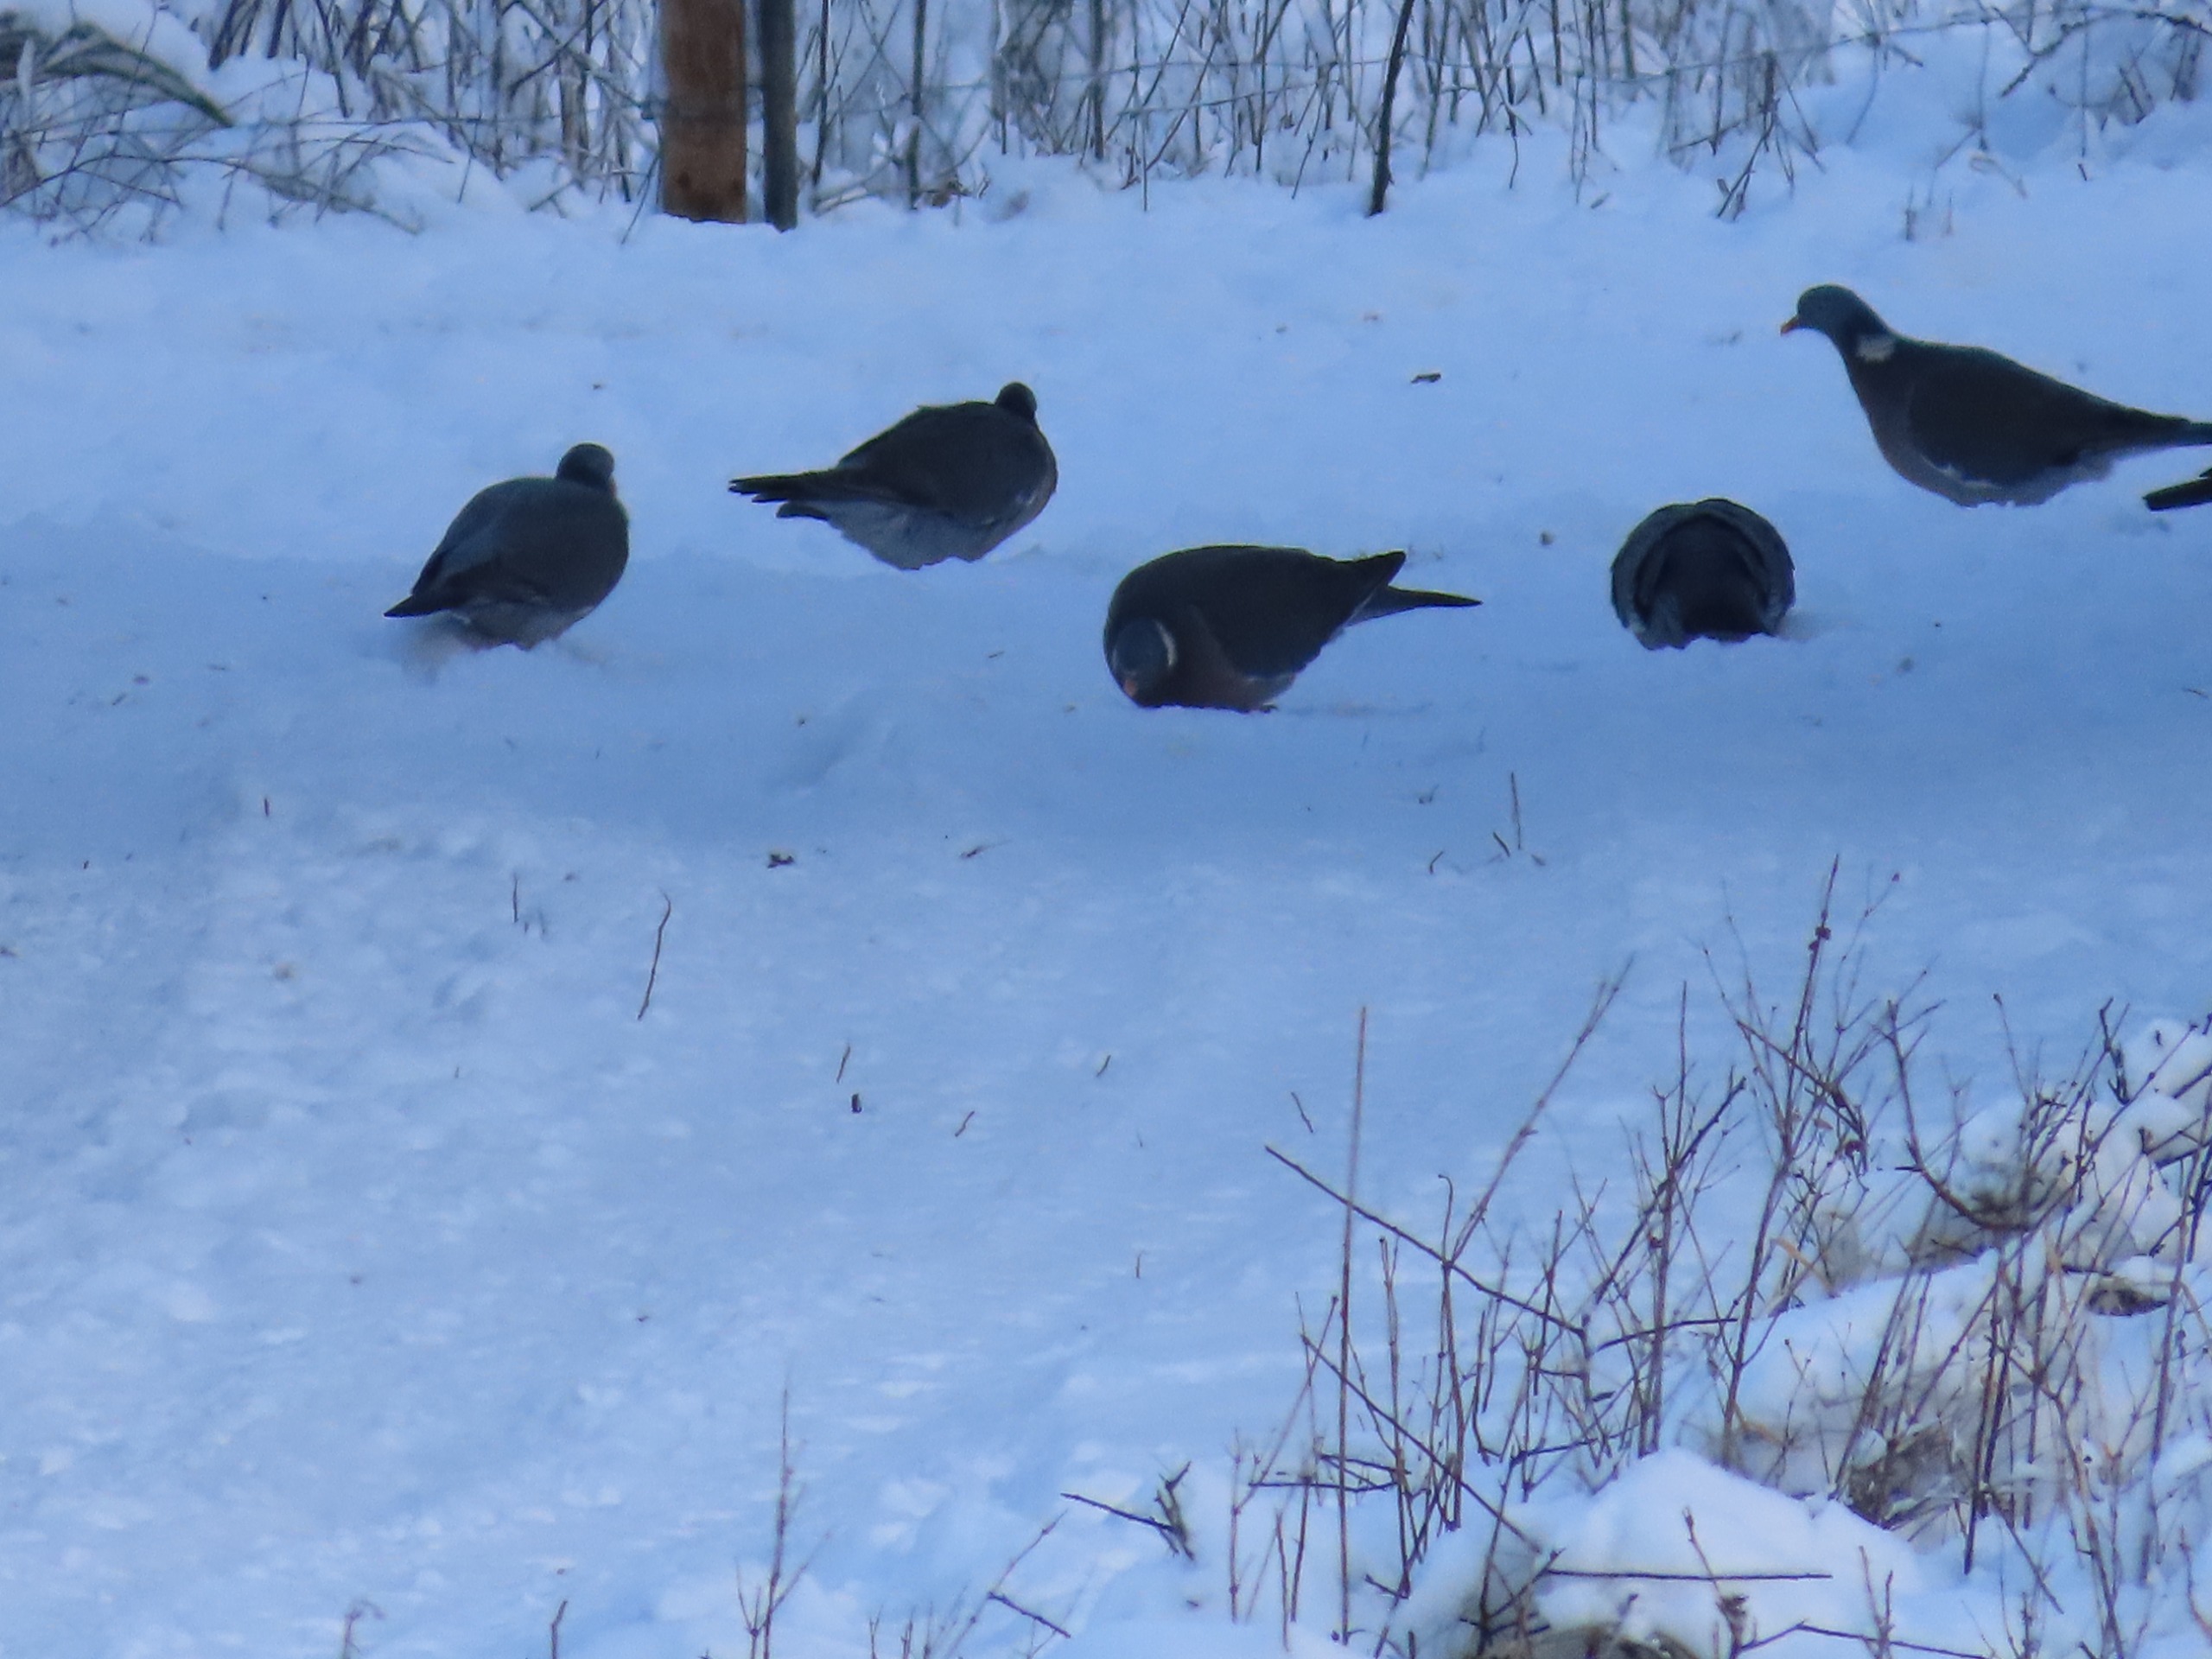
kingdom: Animalia
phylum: Chordata
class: Aves
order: Columbiformes
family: Columbidae
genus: Columba
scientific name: Columba palumbus
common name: Ringdue
